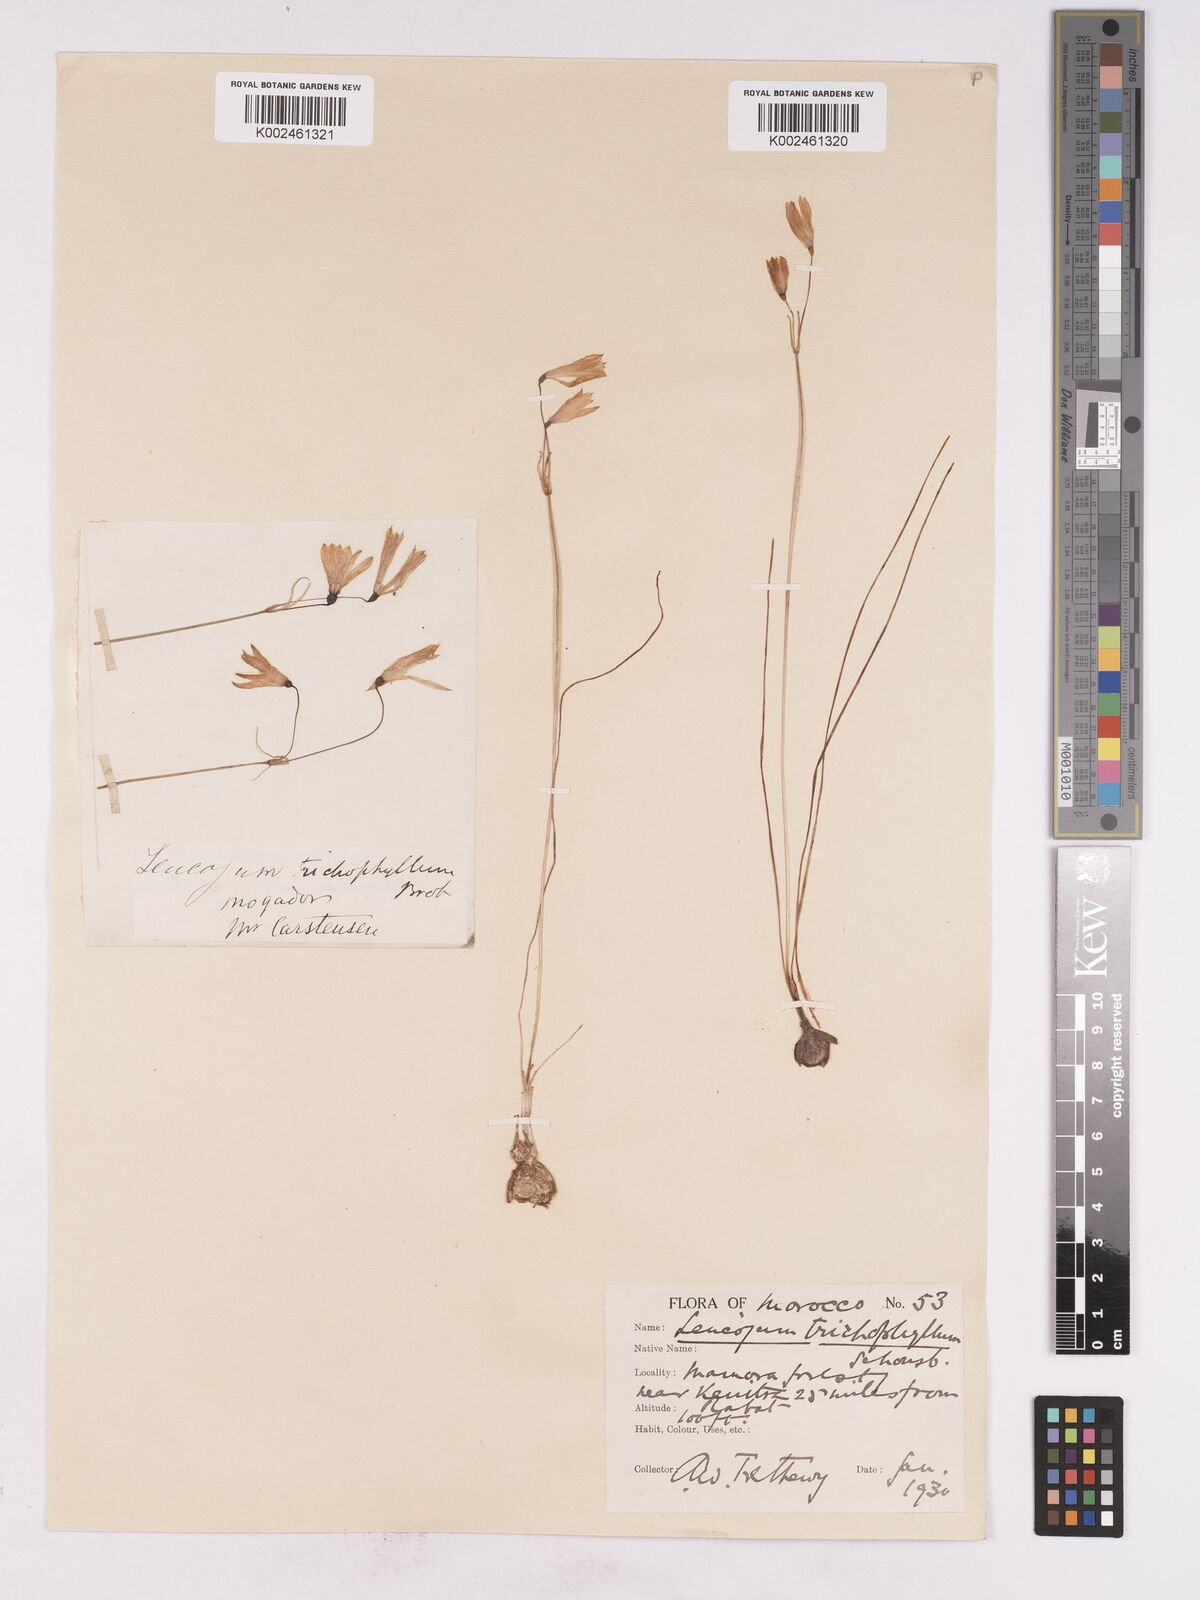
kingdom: Plantae
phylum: Tracheophyta
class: Liliopsida
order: Asparagales
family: Amaryllidaceae
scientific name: Amaryllidaceae
